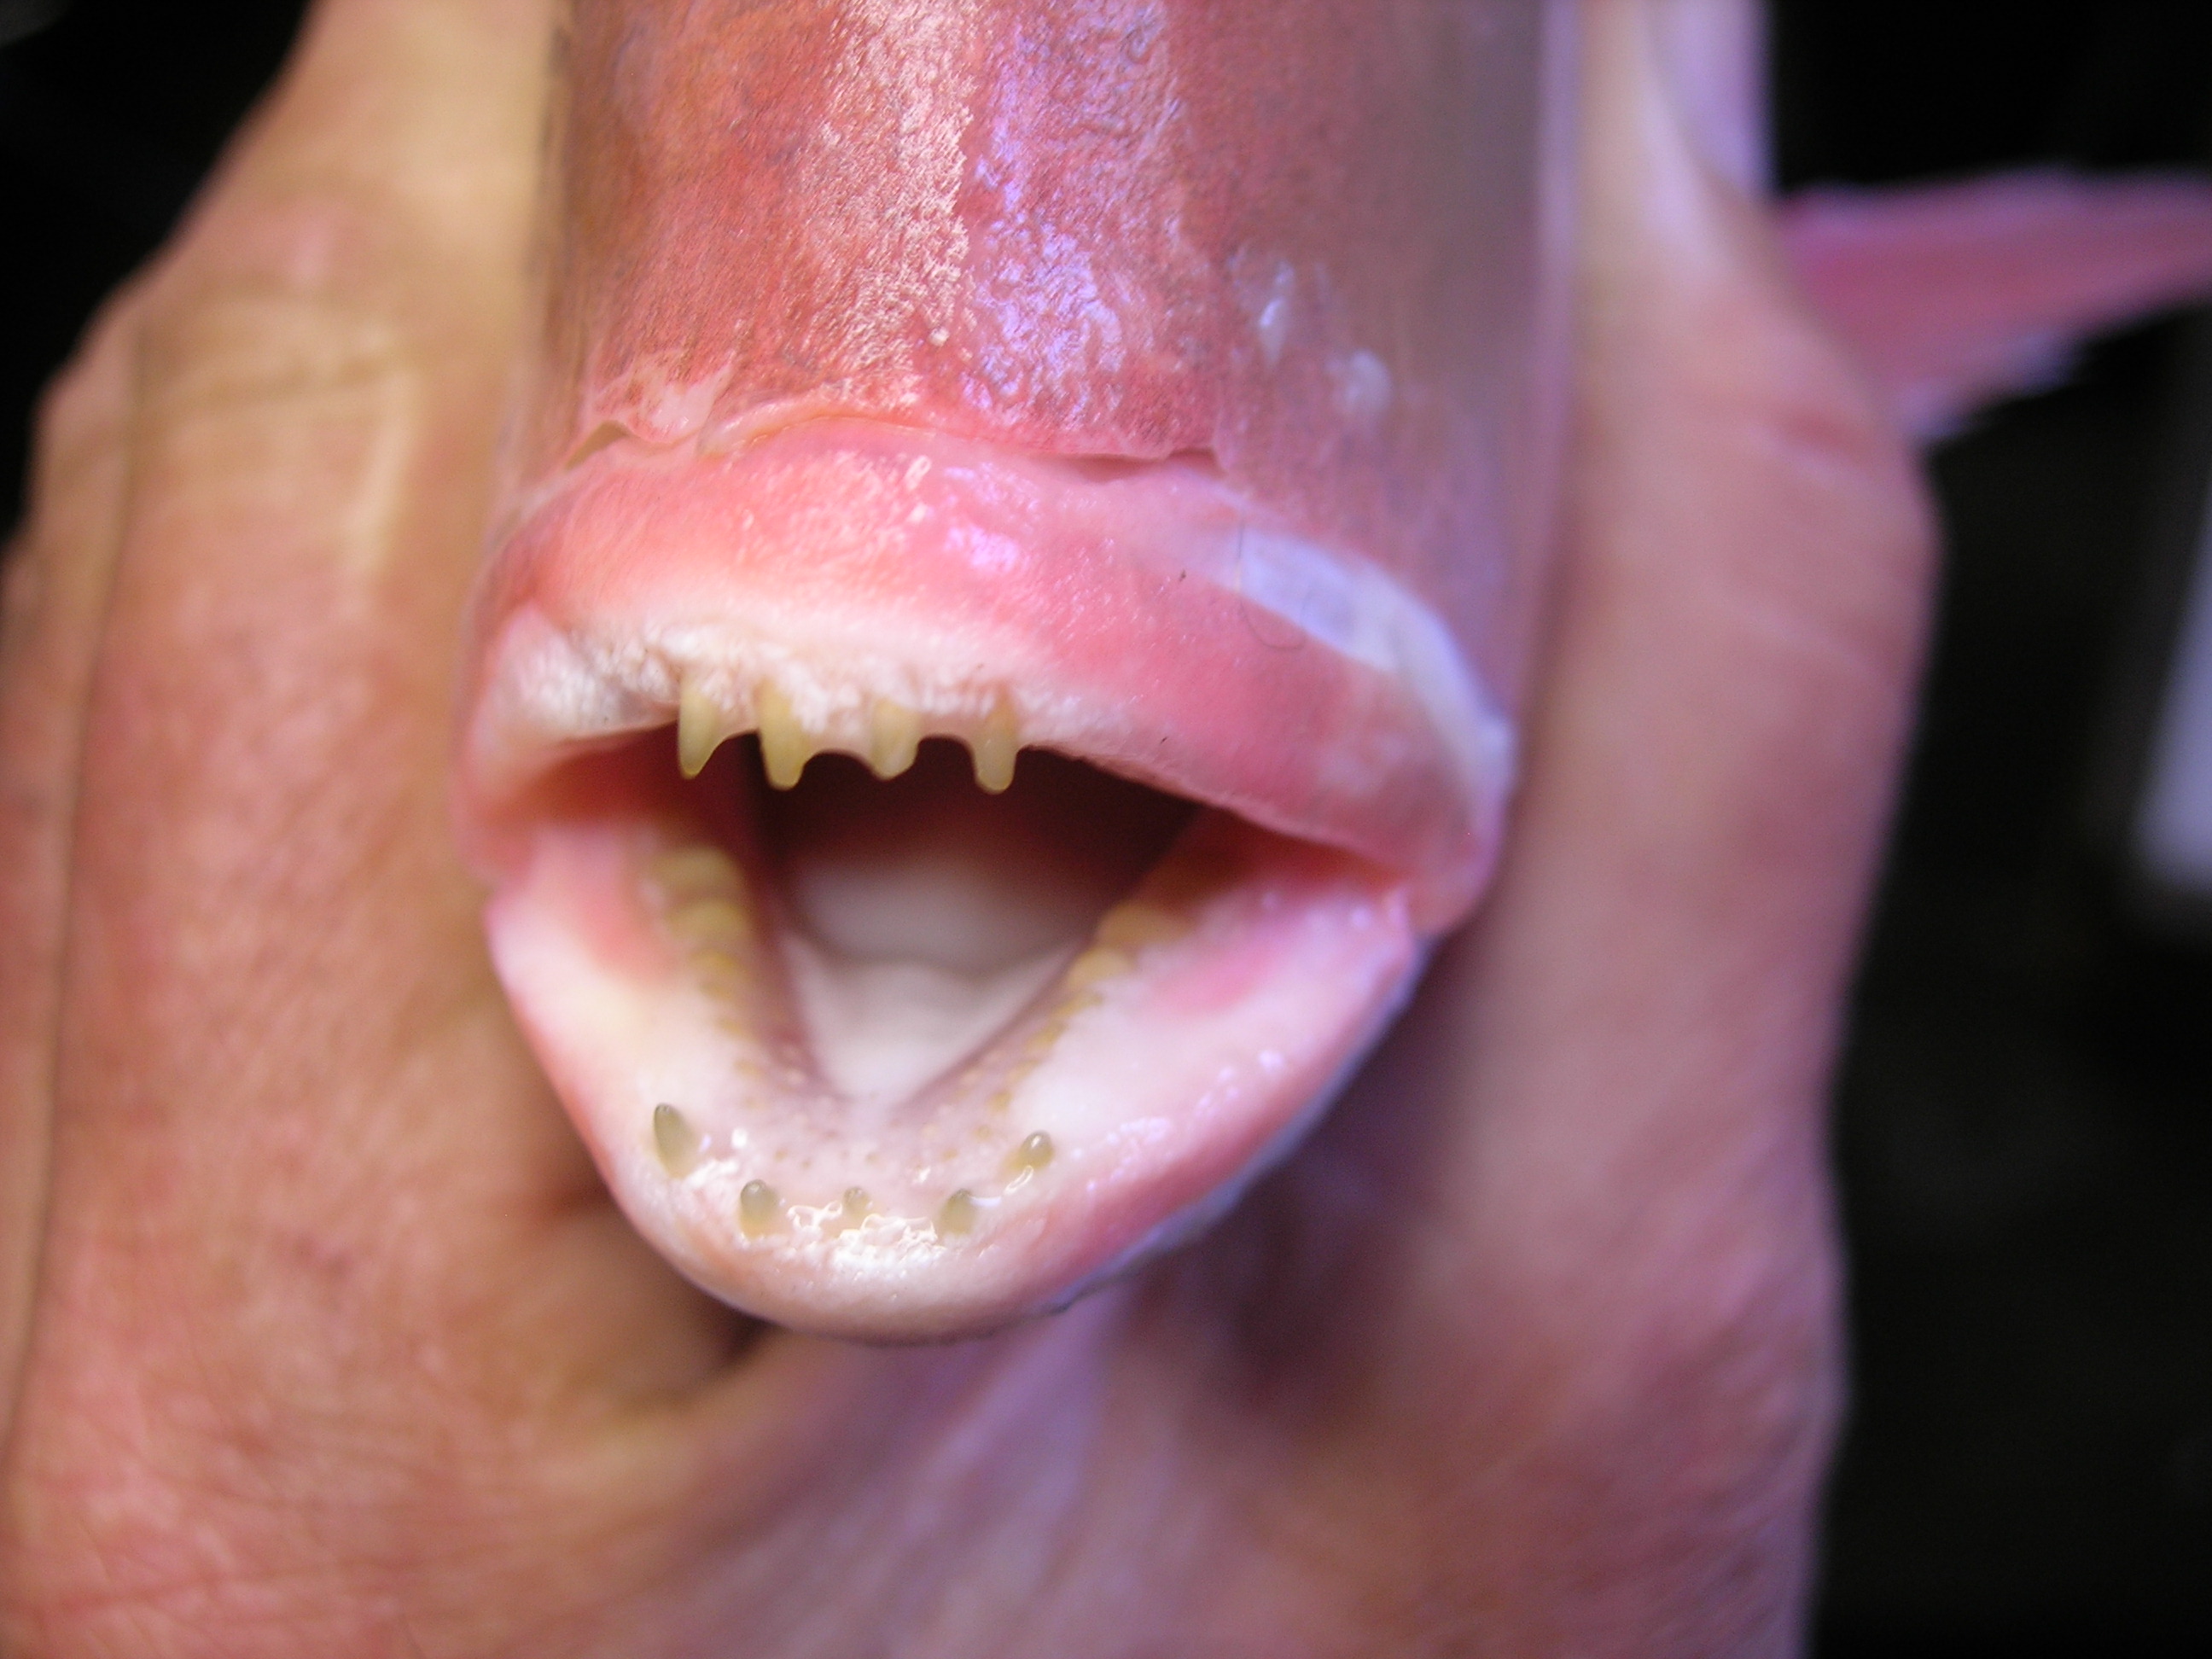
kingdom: Animalia
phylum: Chordata
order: Perciformes
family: Sparidae
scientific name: Sparidae
